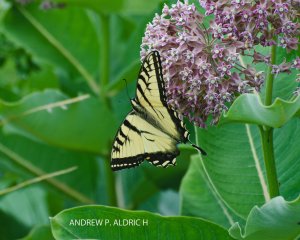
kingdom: Animalia
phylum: Arthropoda
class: Insecta
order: Lepidoptera
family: Papilionidae
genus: Pterourus
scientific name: Pterourus canadensis
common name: Canadian Tiger Swallowtail
